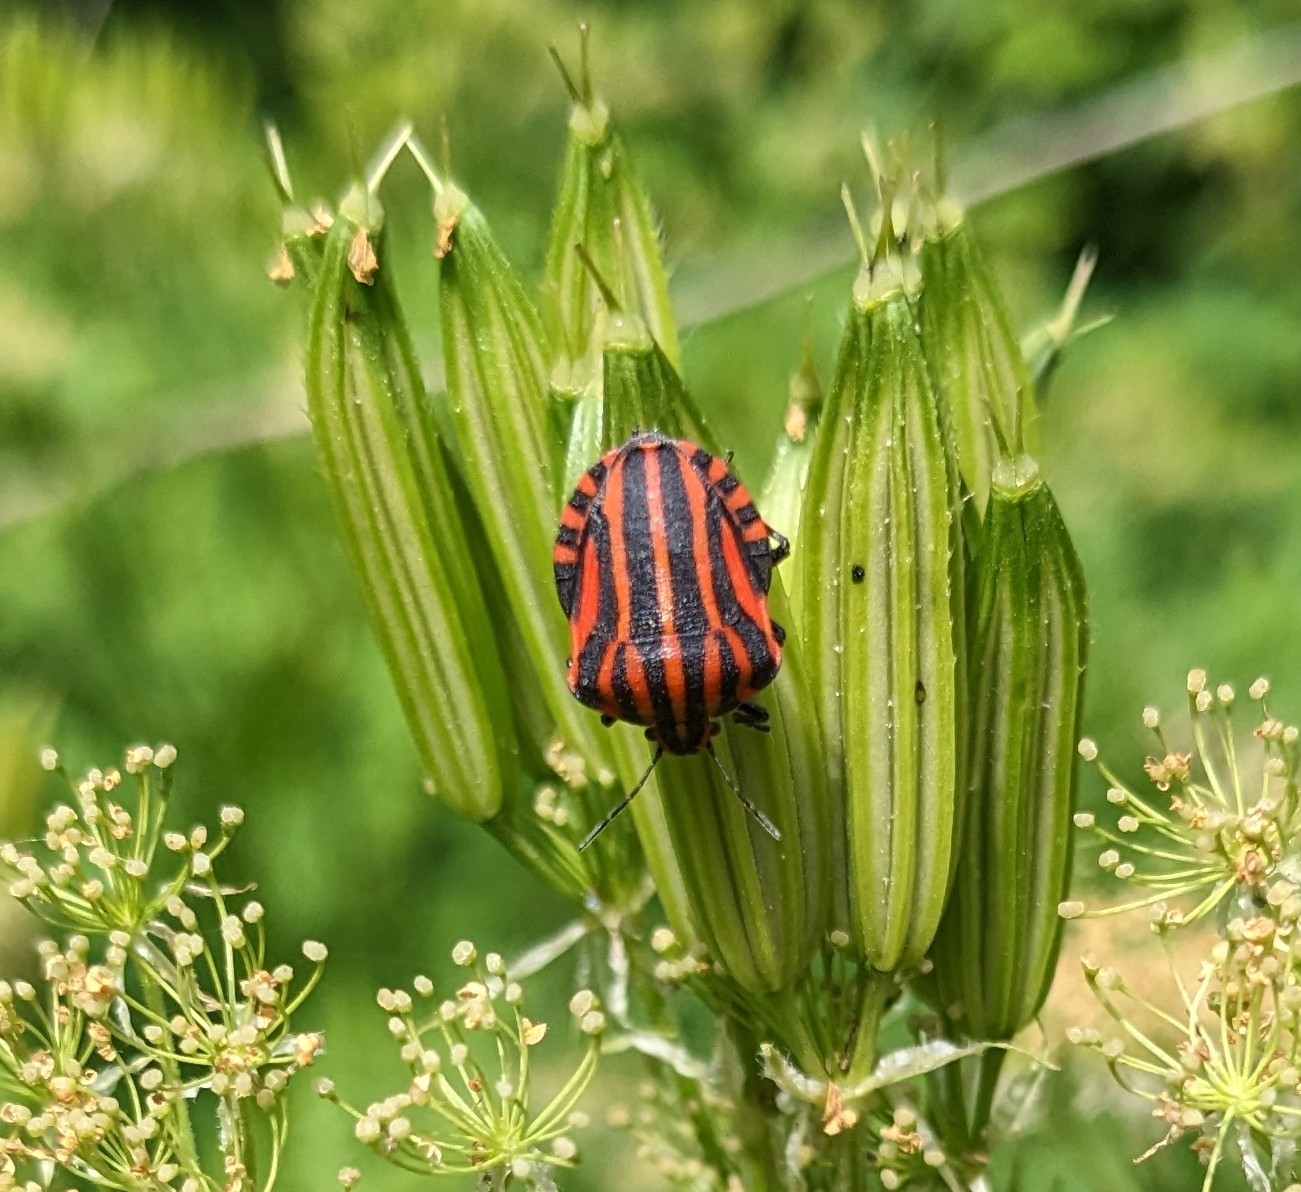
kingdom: Animalia
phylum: Arthropoda
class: Insecta
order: Hemiptera
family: Pentatomidae
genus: Graphosoma
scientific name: Graphosoma italicum
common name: Stribetæge
